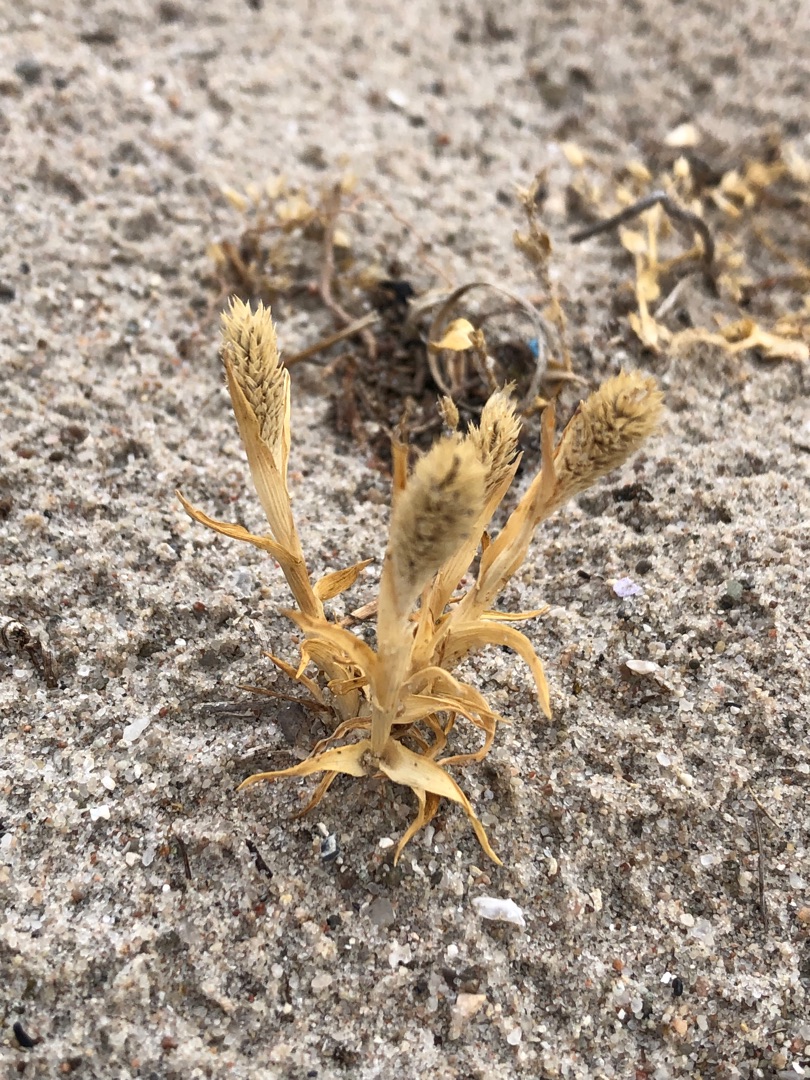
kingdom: Plantae
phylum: Tracheophyta
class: Liliopsida
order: Poales
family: Poaceae
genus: Phleum
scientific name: Phleum arenarium
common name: Sand-rottehale
